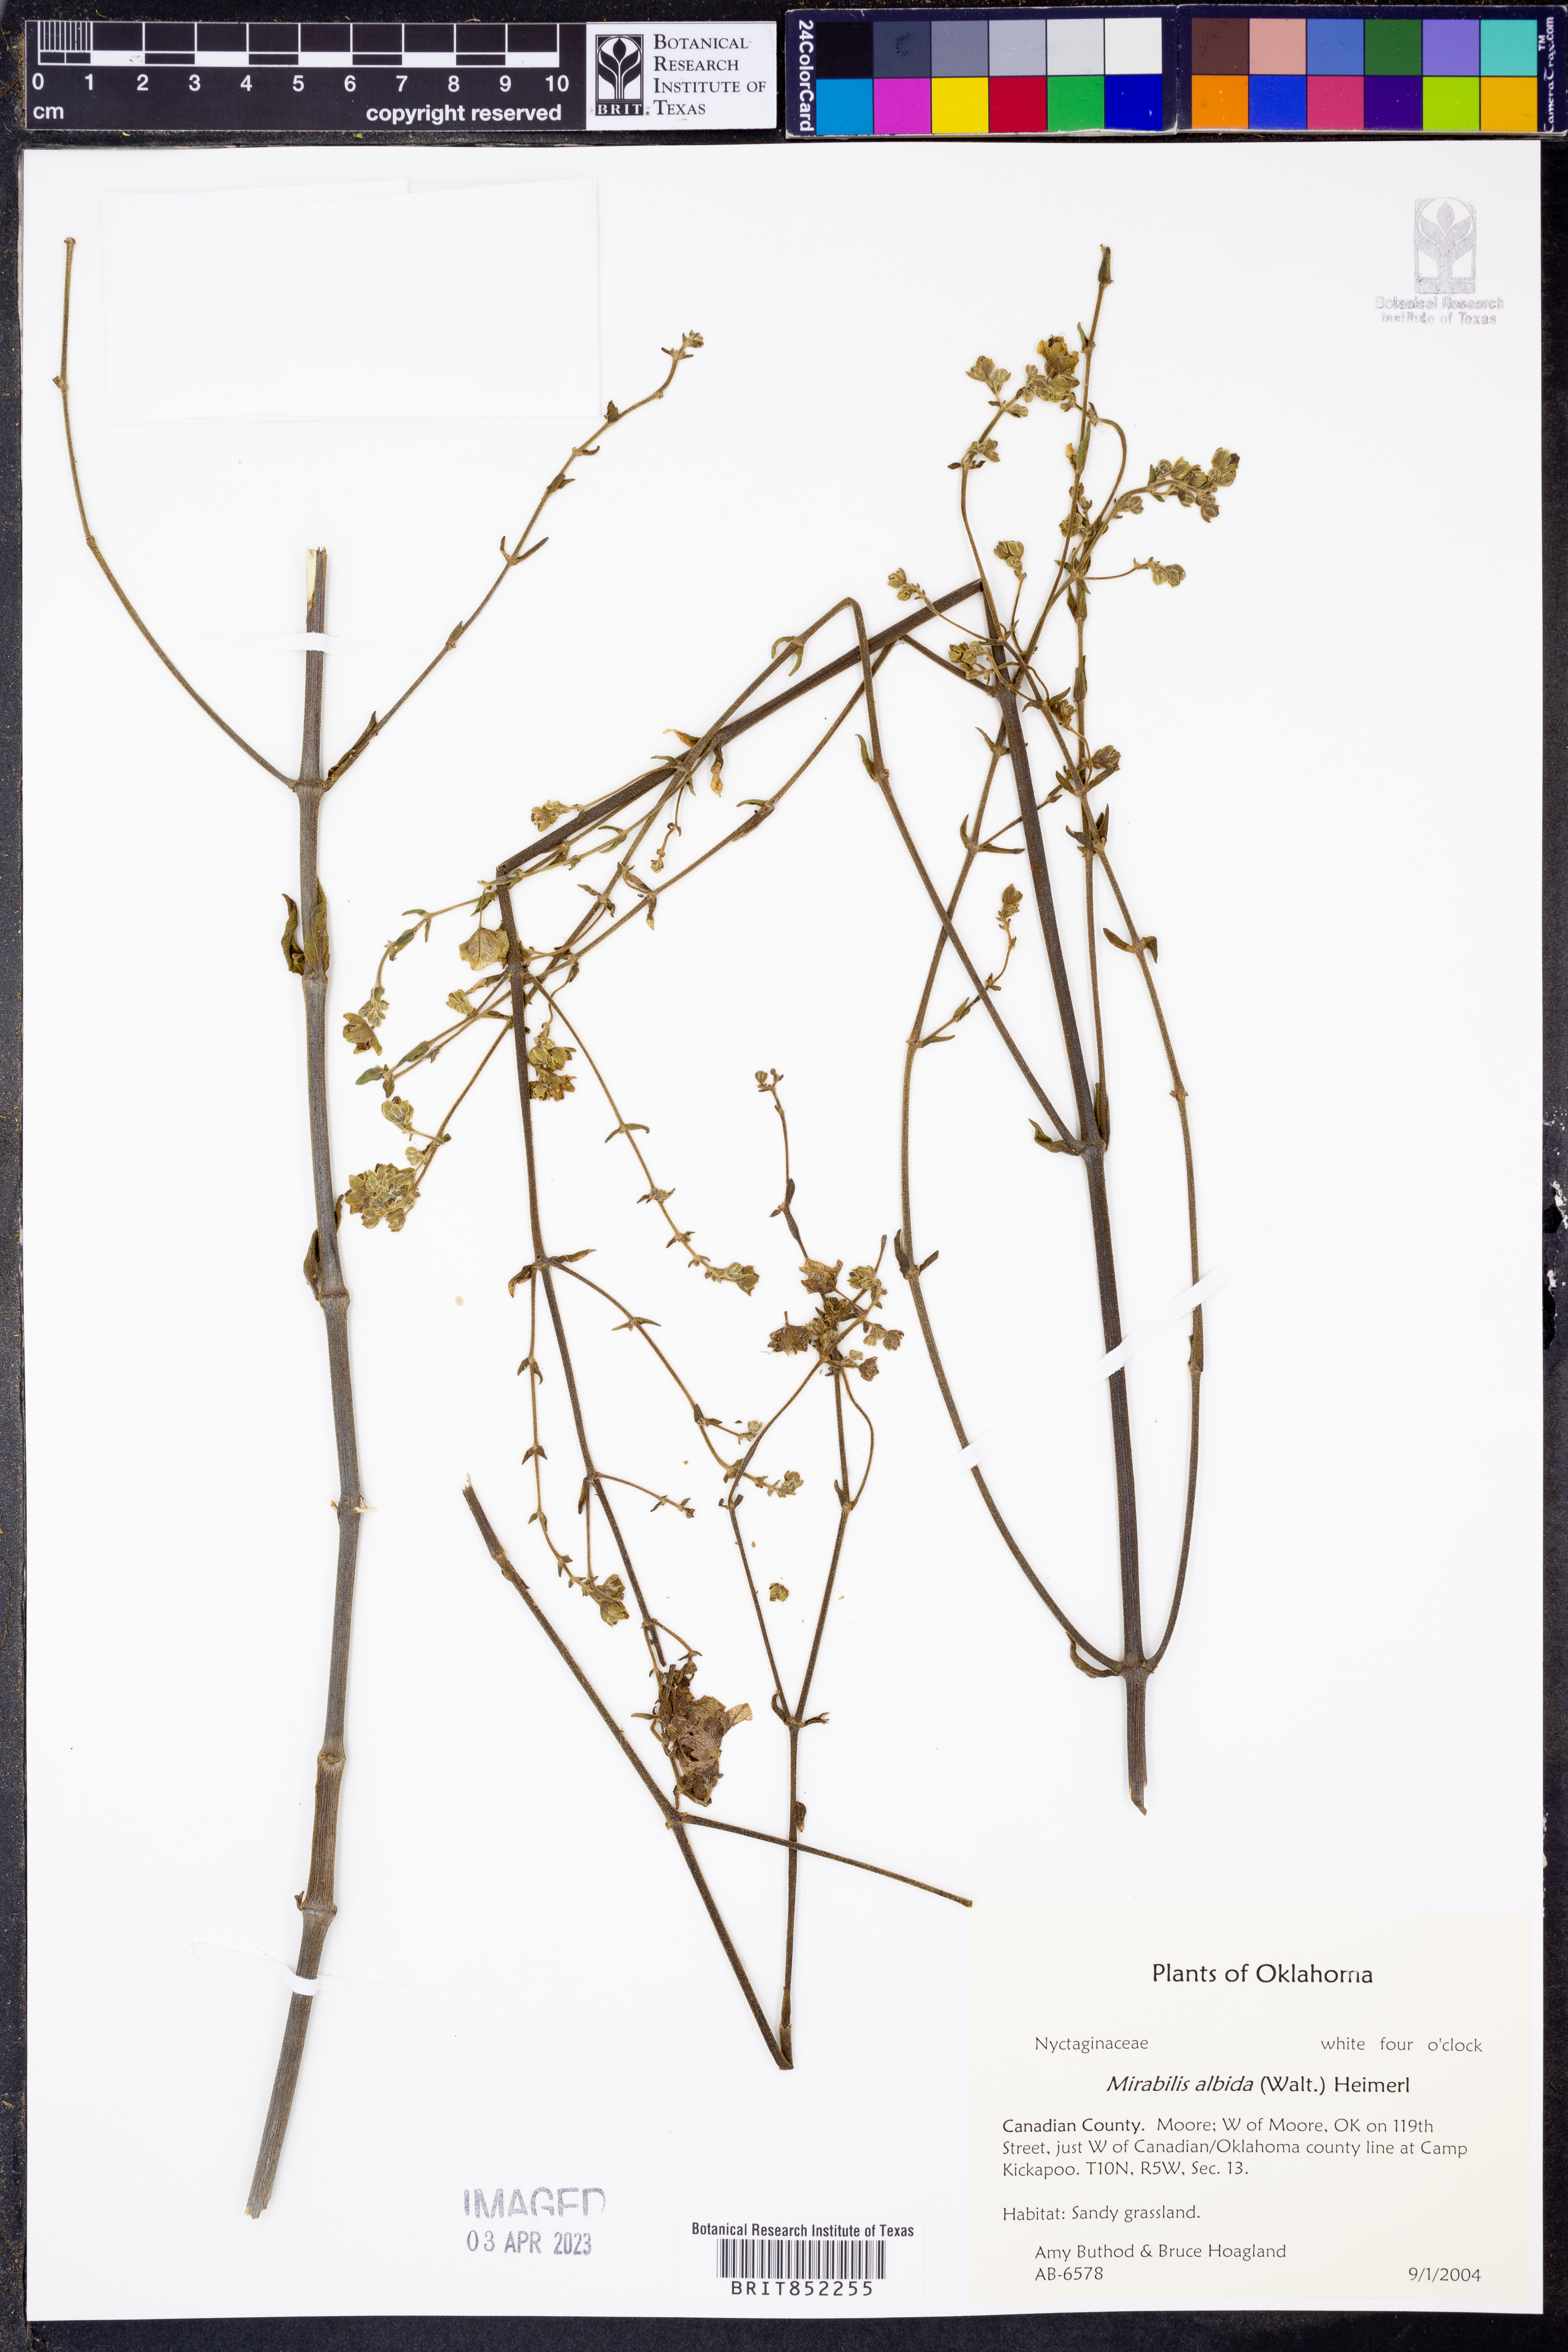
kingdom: Plantae
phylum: Tracheophyta
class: Magnoliopsida
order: Caryophyllales
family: Nyctaginaceae
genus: Mirabilis
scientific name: Mirabilis albida
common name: Hairy four-o'clock
